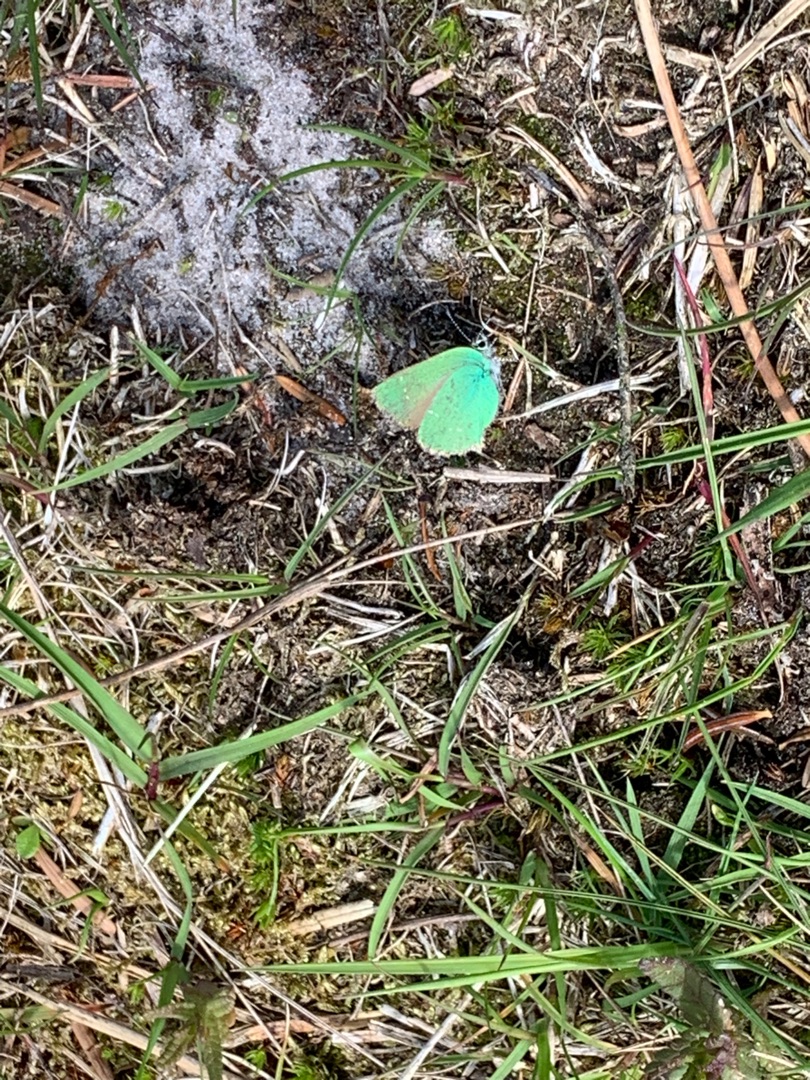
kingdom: Animalia
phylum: Arthropoda
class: Insecta
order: Lepidoptera
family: Lycaenidae
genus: Callophrys
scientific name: Callophrys rubi
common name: Grøn busksommerfugl
